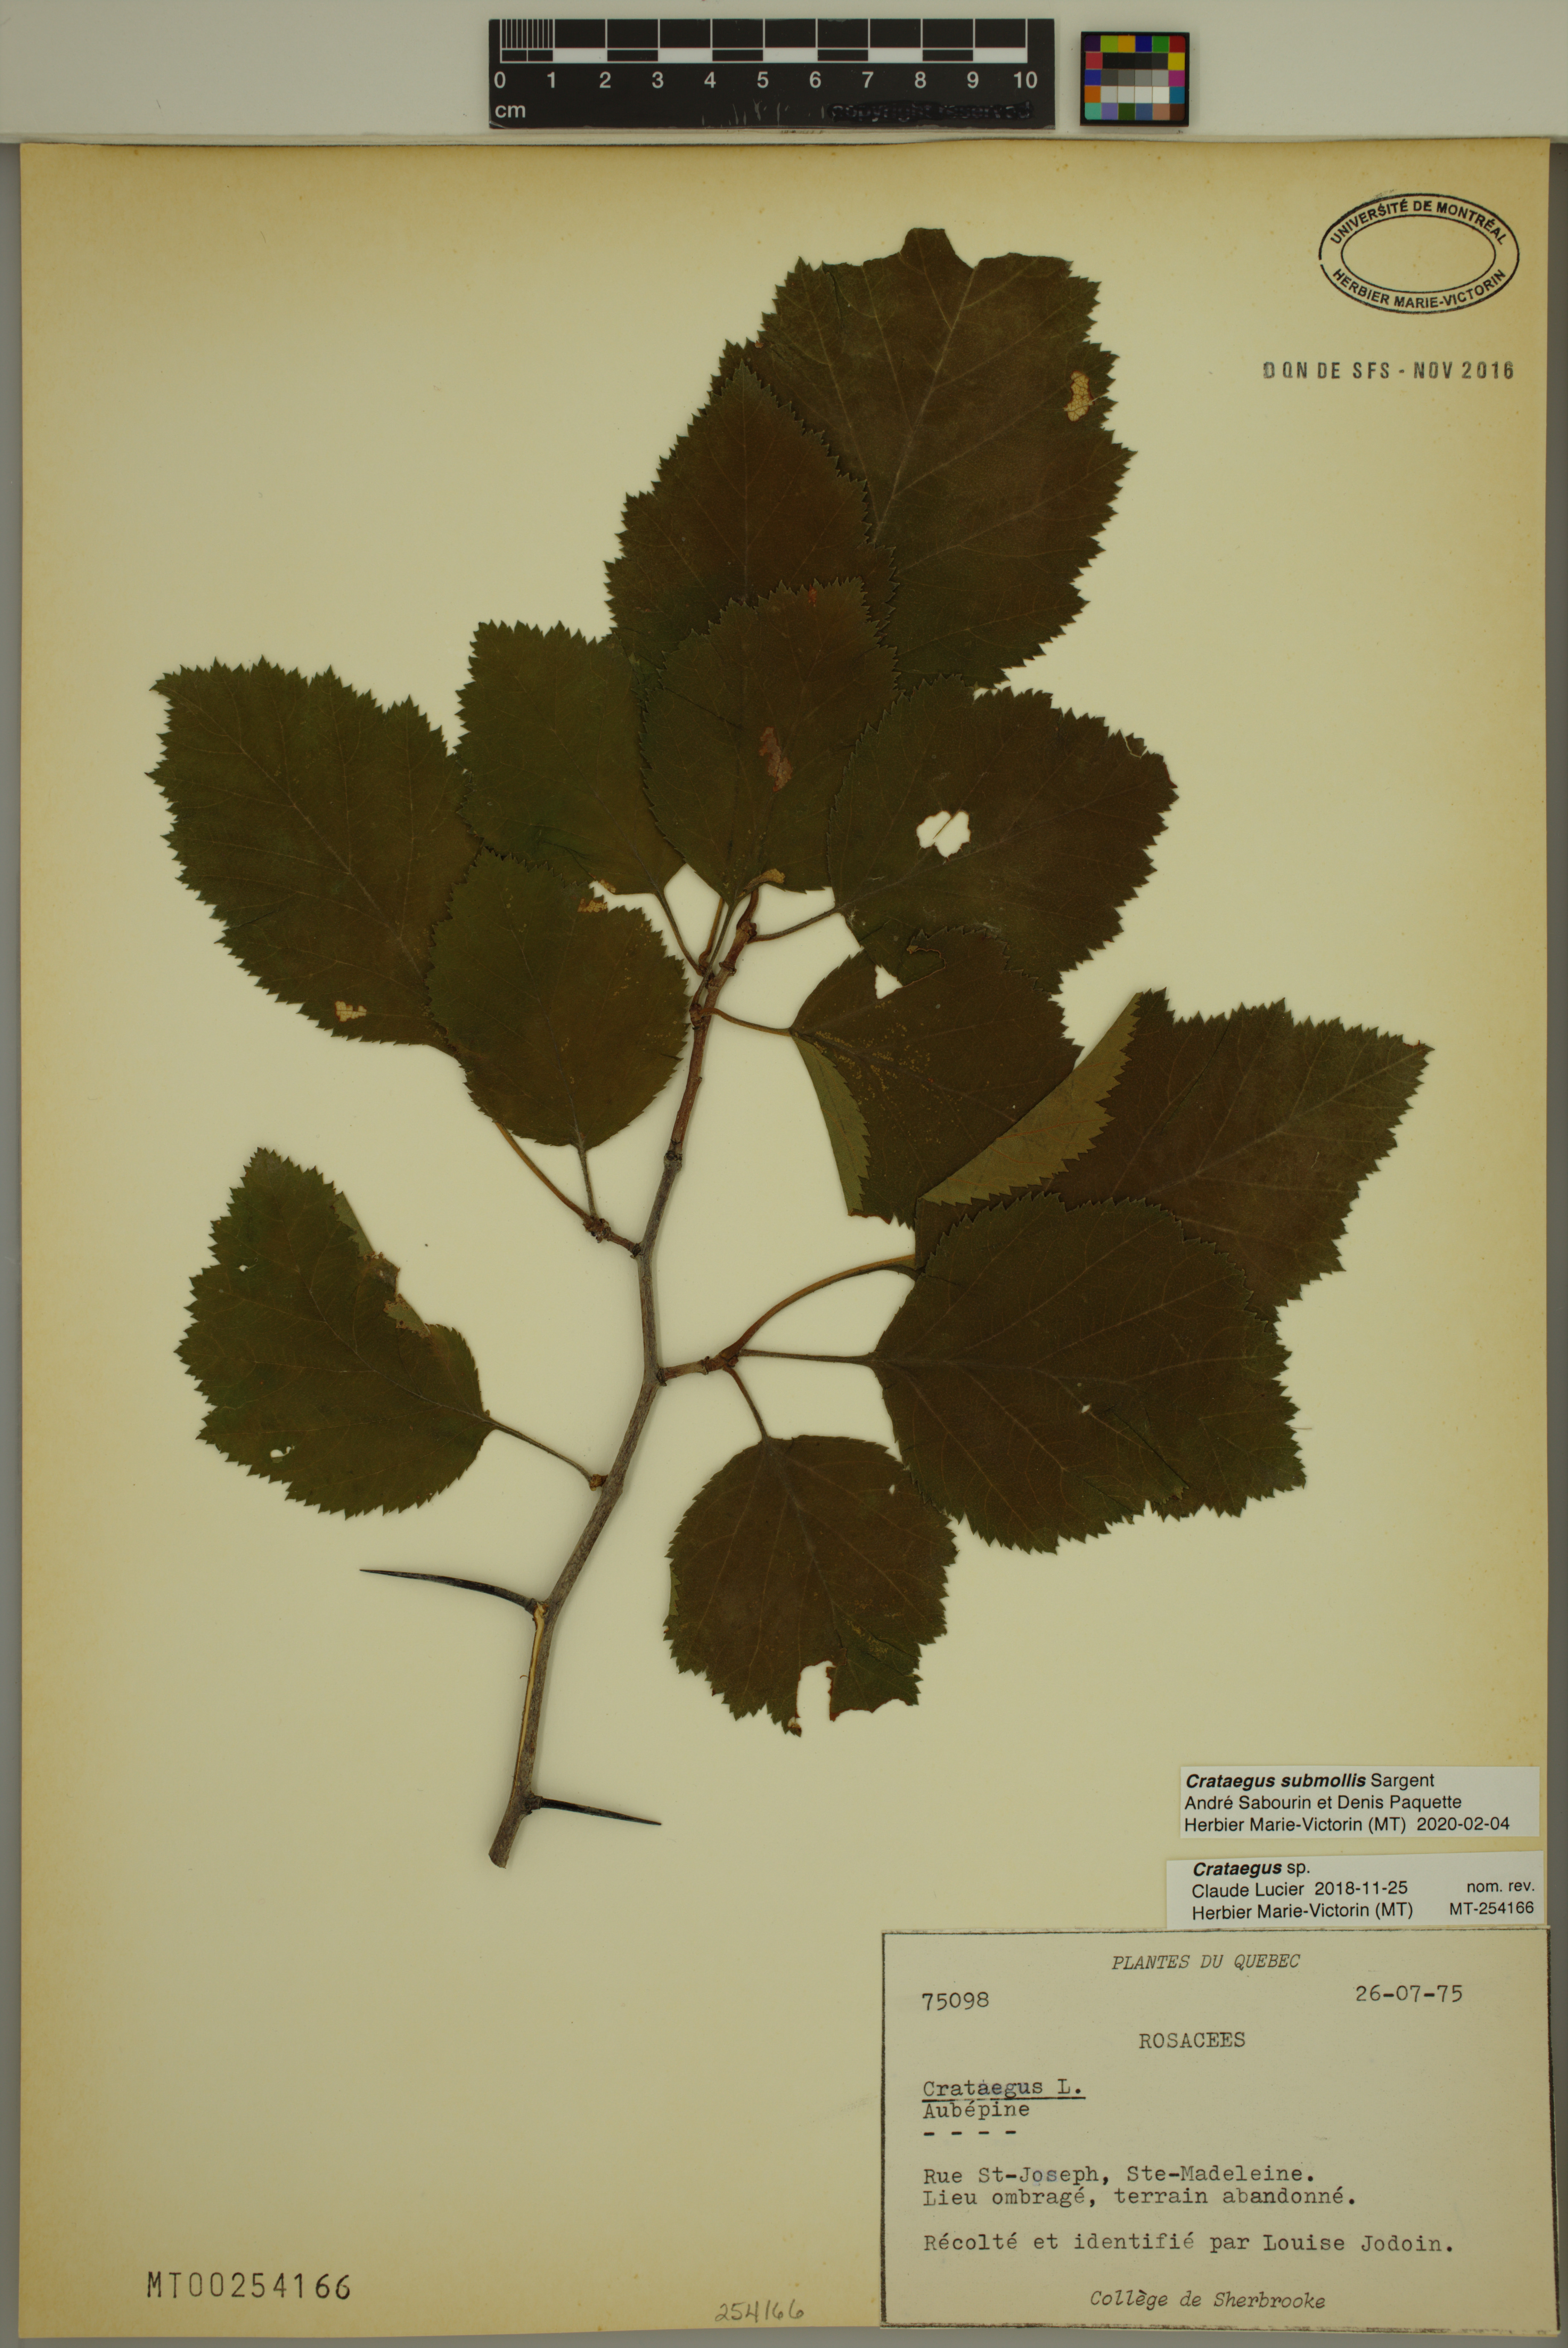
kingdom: Plantae
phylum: Tracheophyta
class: Magnoliopsida
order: Rosales
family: Rosaceae
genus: Crataegus
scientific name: Crataegus submollis
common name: Hairy cockspurthorn
